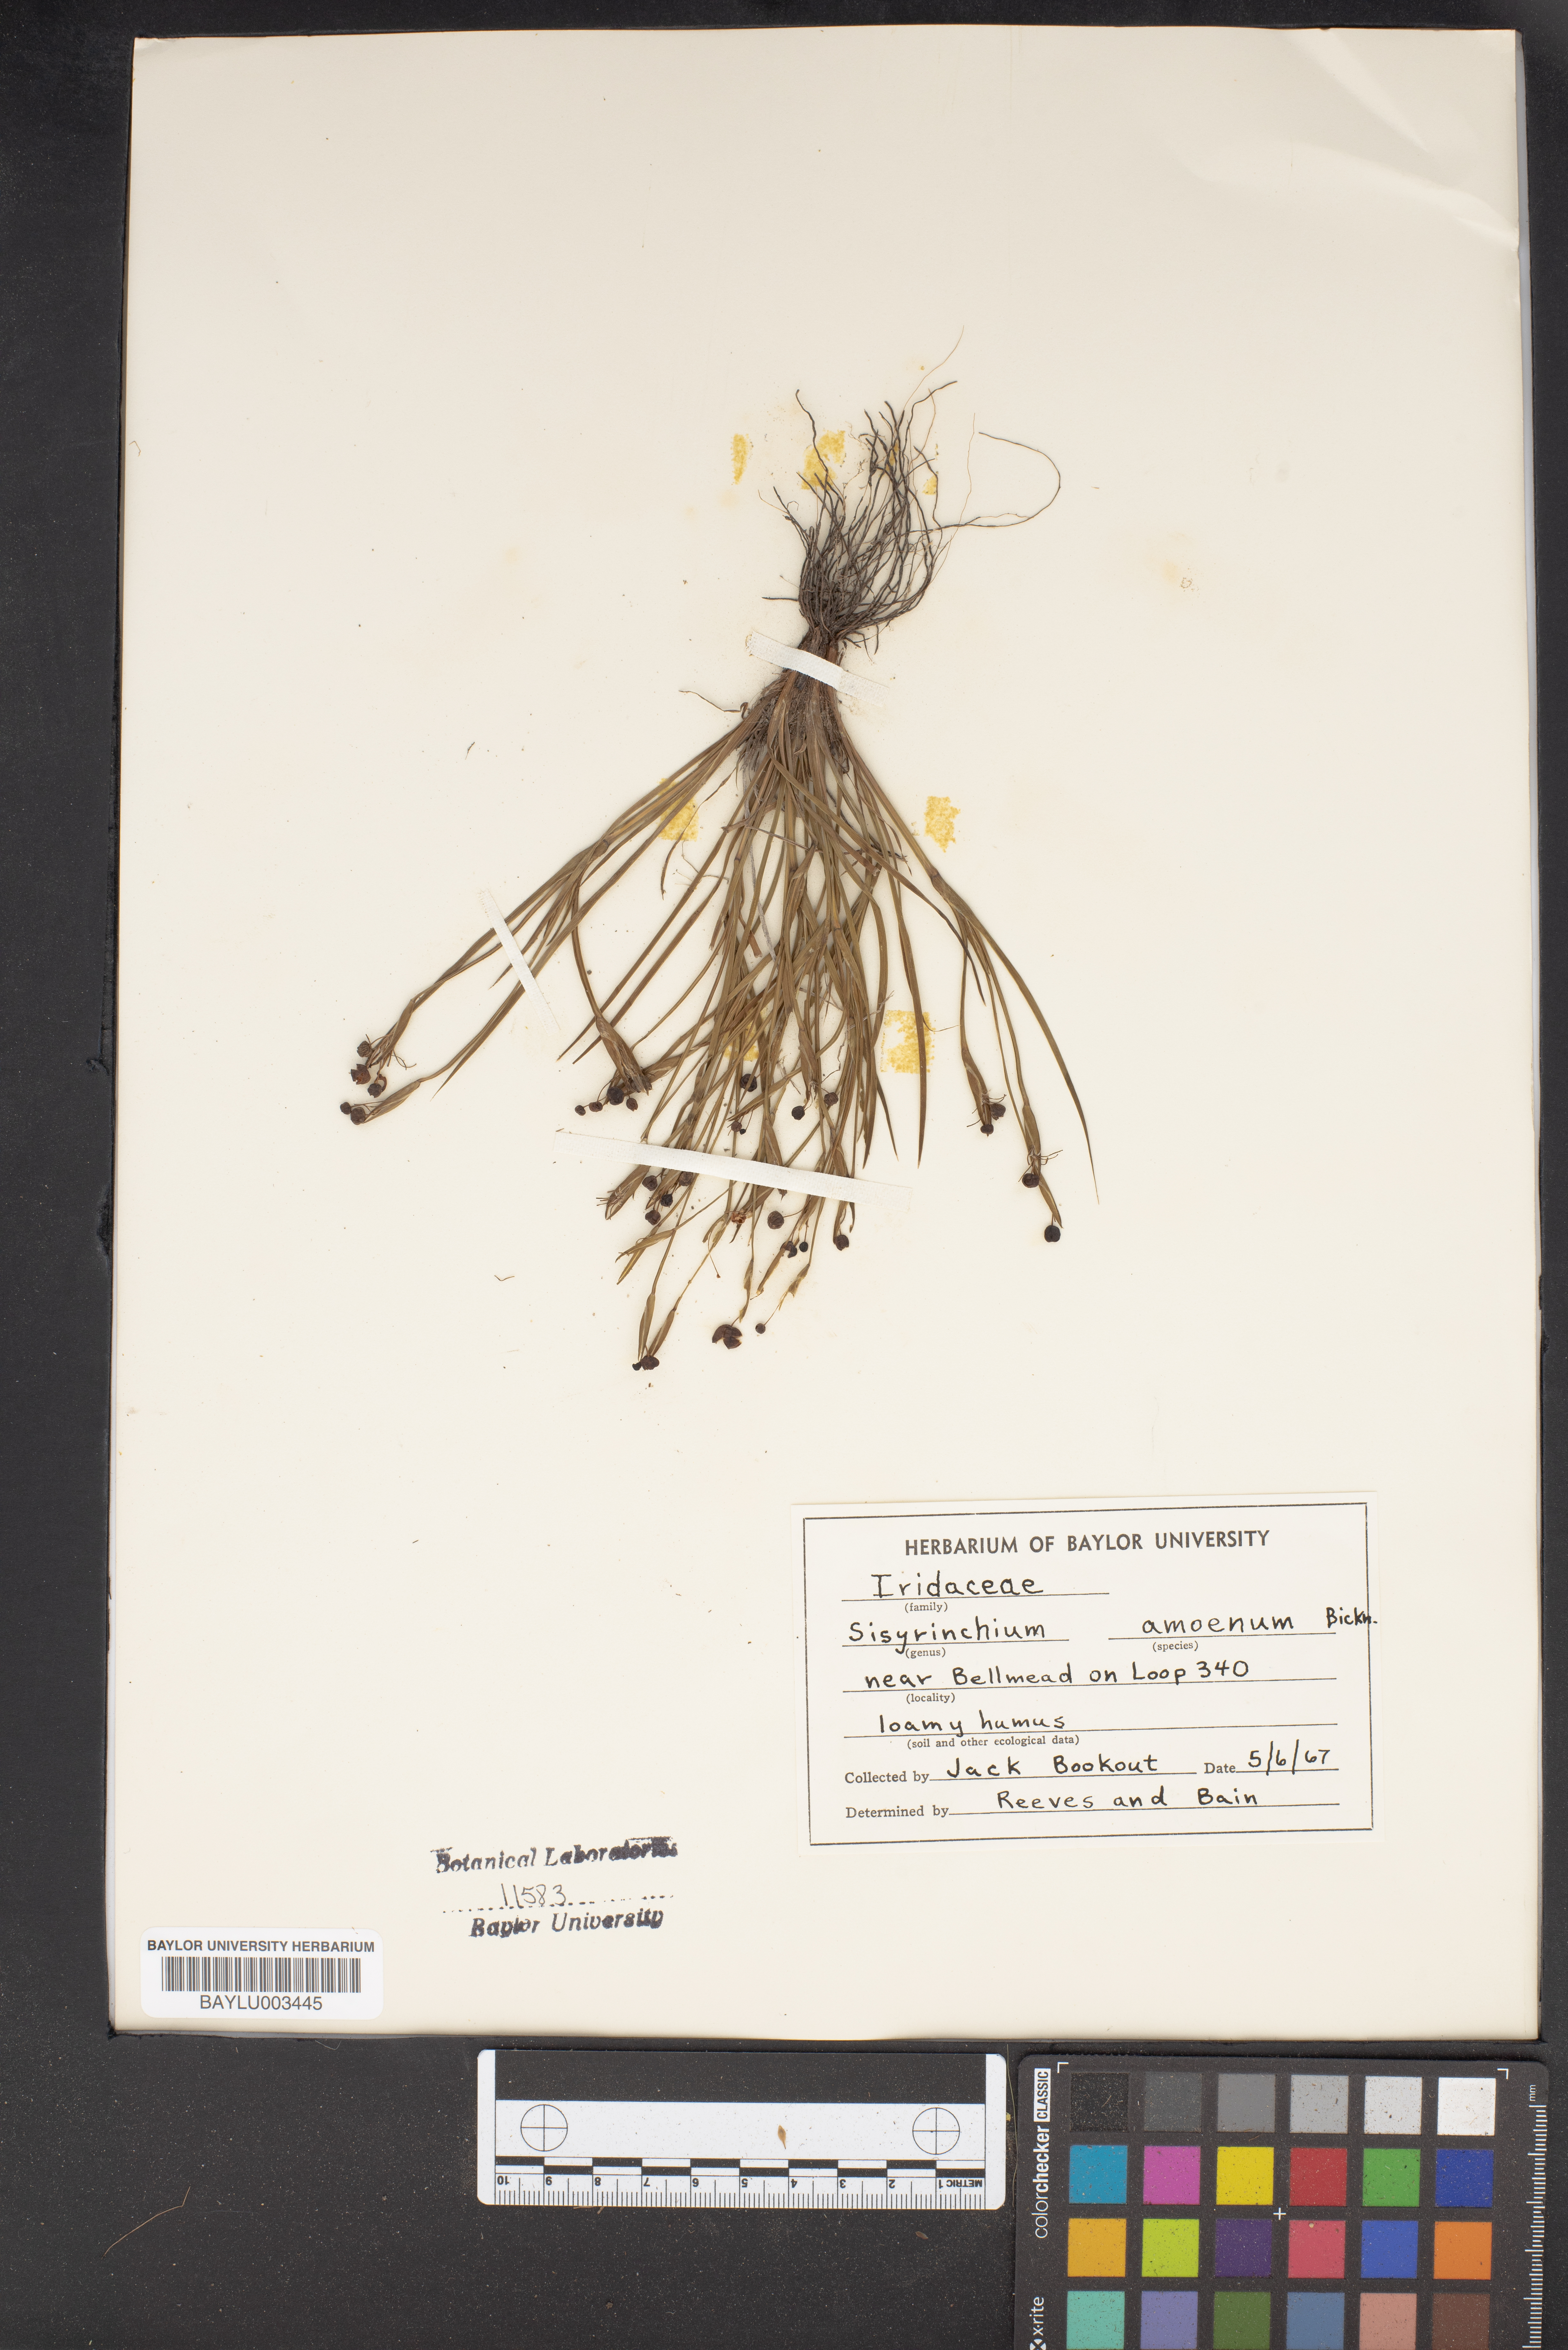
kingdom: Plantae
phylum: Tracheophyta
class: Liliopsida
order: Asparagales
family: Iridaceae
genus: Sisyrinchium
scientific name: Sisyrinchium ensigerum
